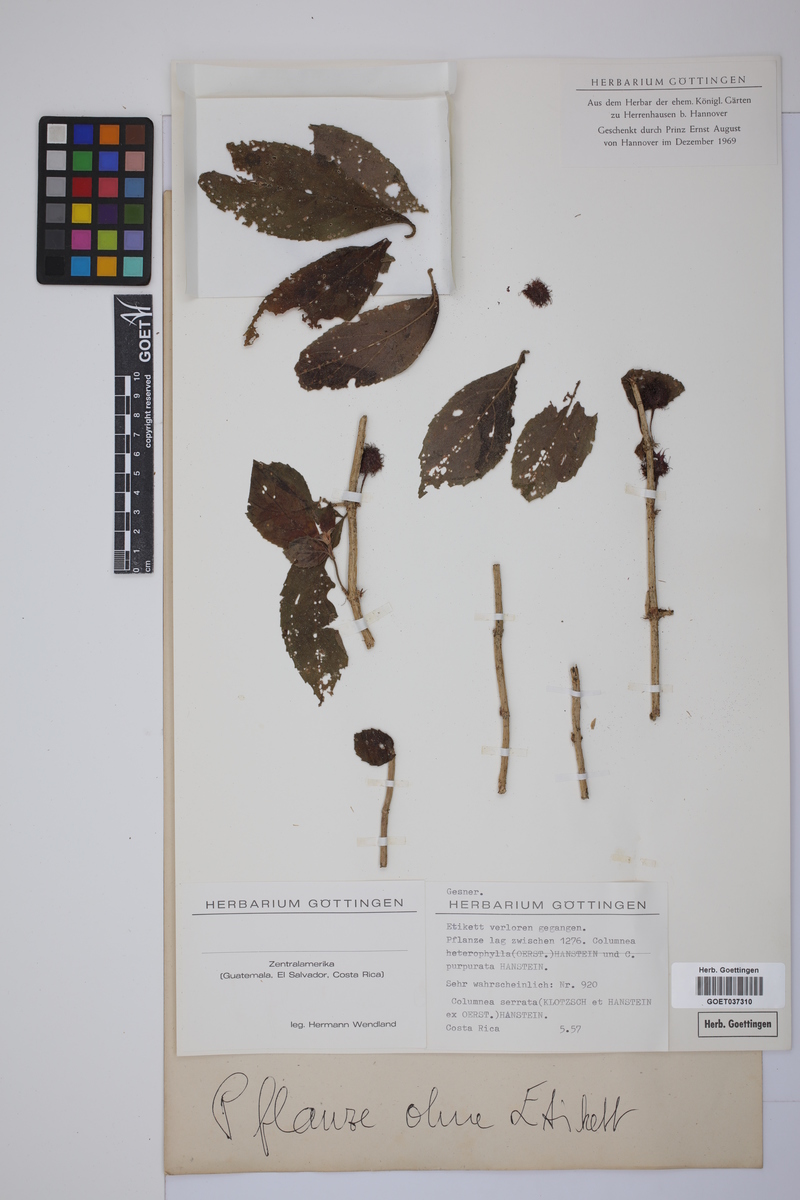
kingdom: Plantae
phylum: Tracheophyta
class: Magnoliopsida
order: Lamiales
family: Gesneriaceae
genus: Columnea
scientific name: Columnea serrata
